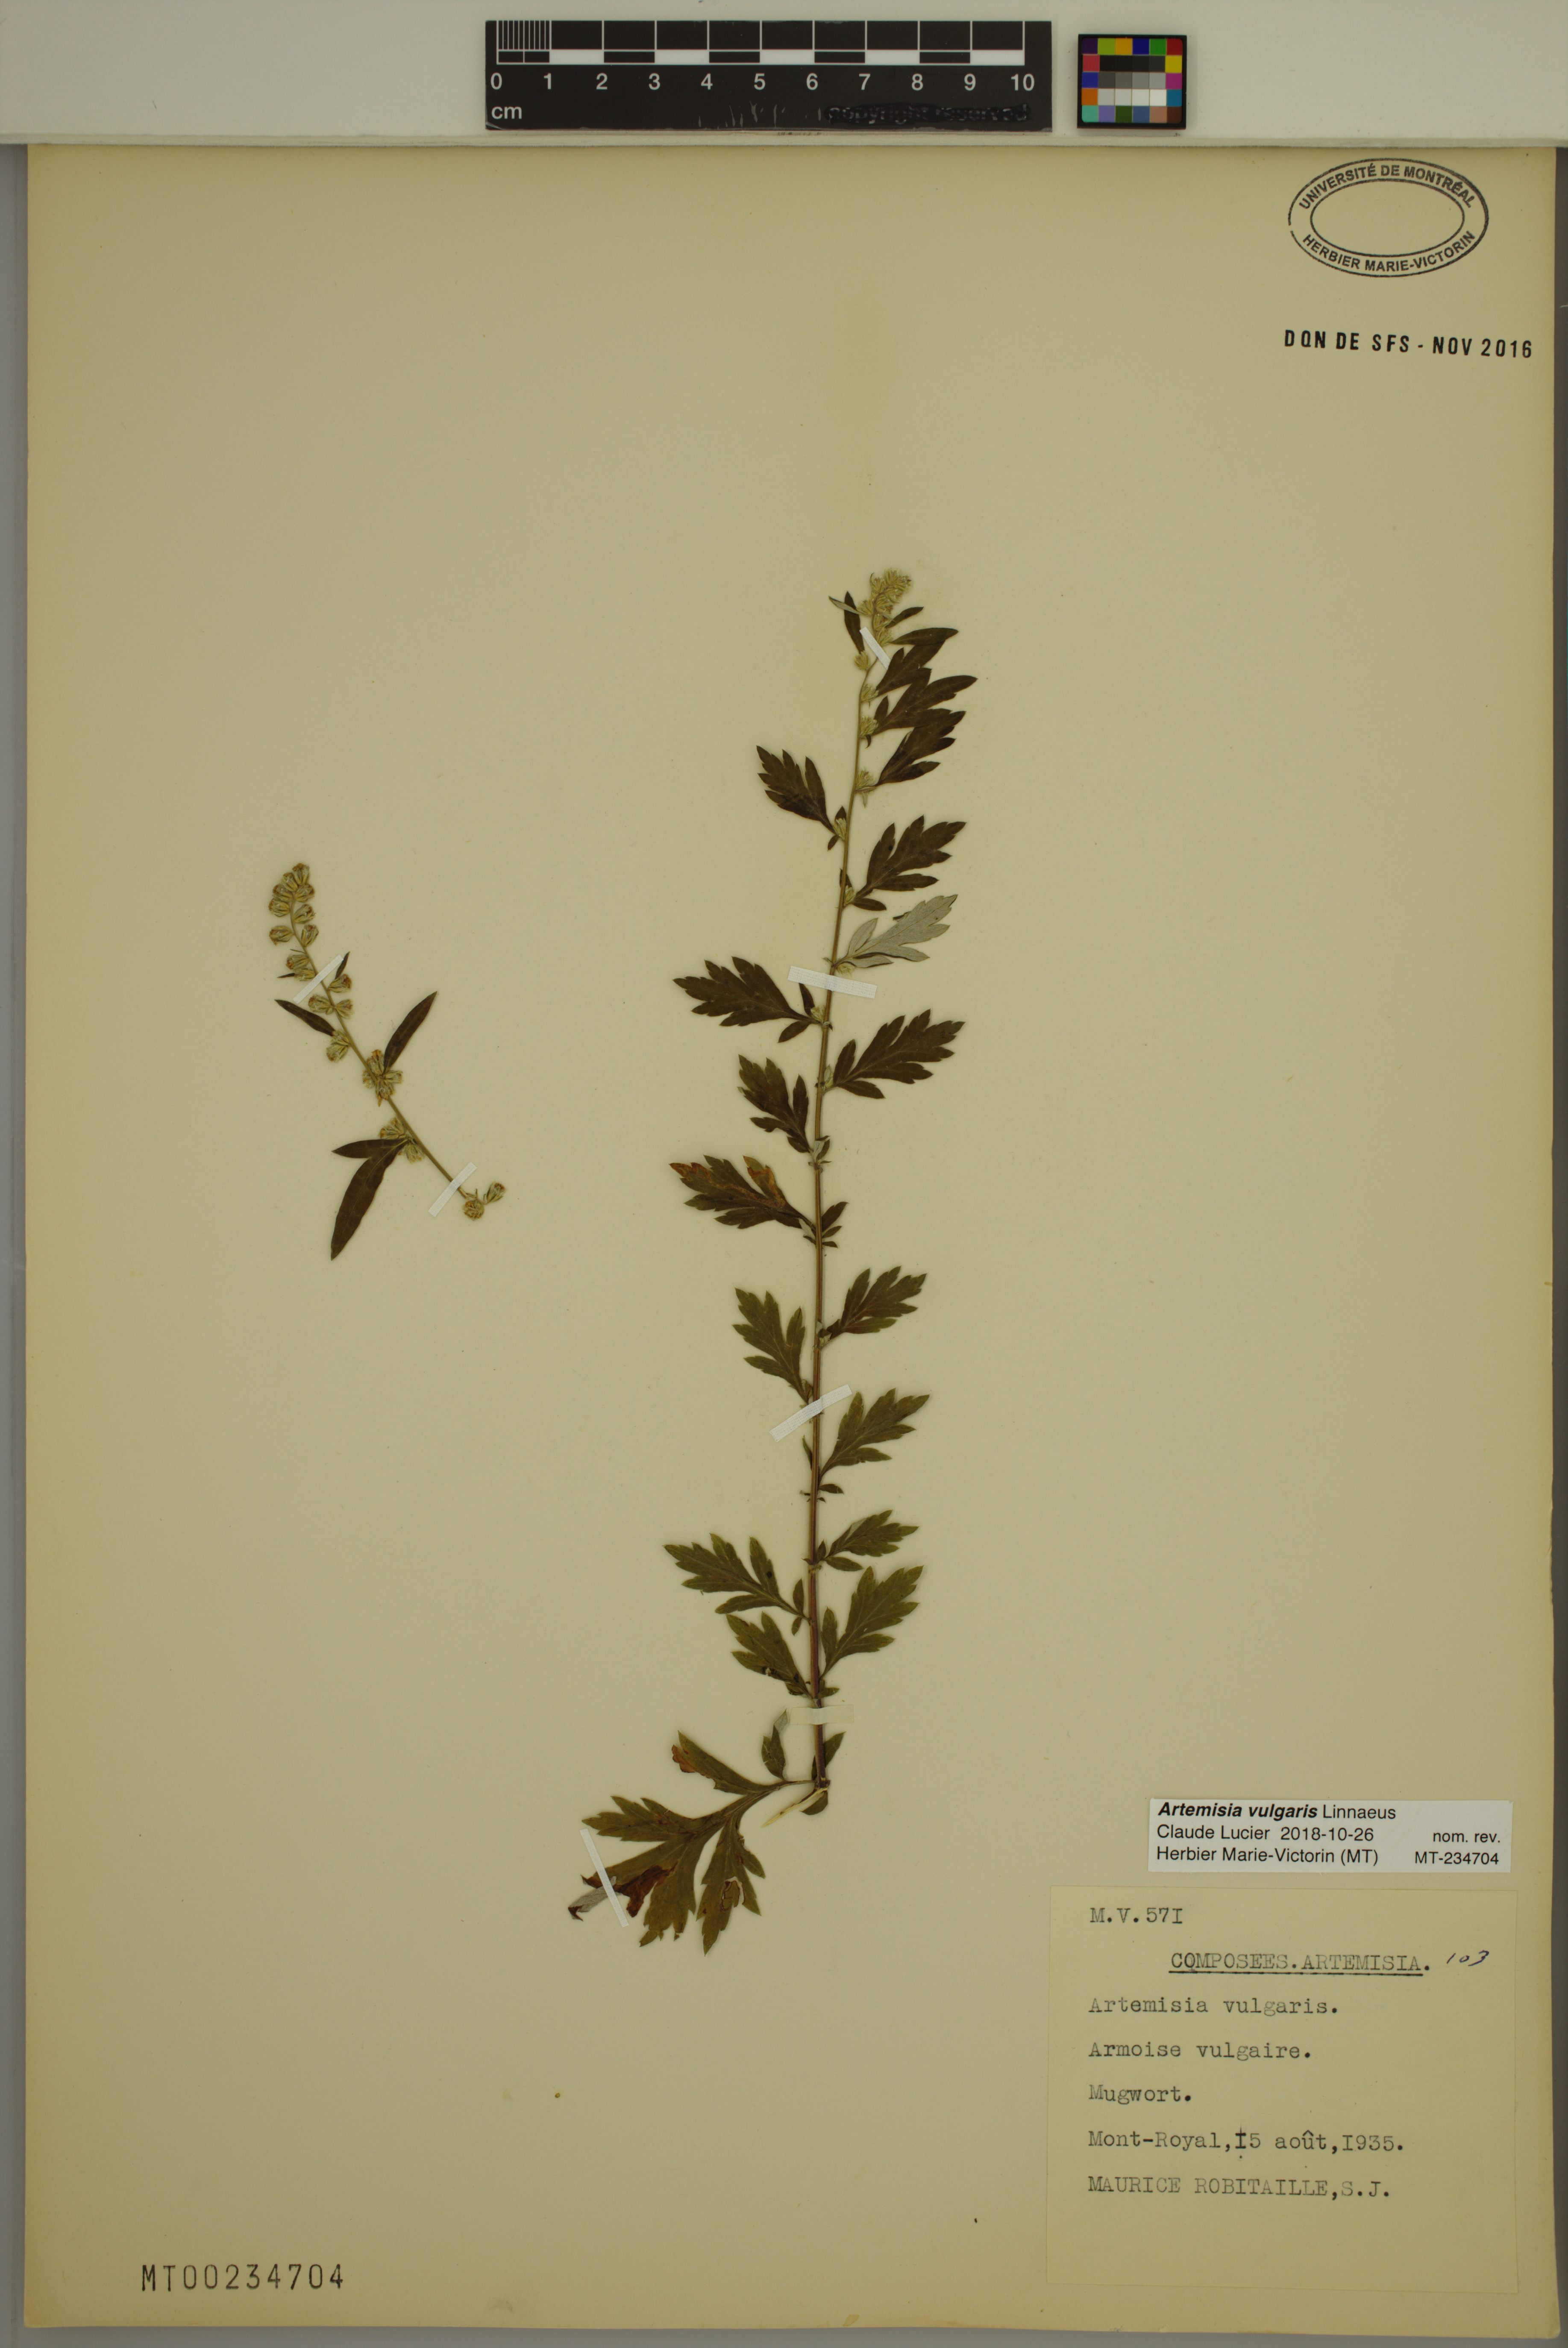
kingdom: Plantae
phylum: Tracheophyta
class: Magnoliopsida
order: Asterales
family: Asteraceae
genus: Artemisia
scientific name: Artemisia vulgaris
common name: Mugwort
